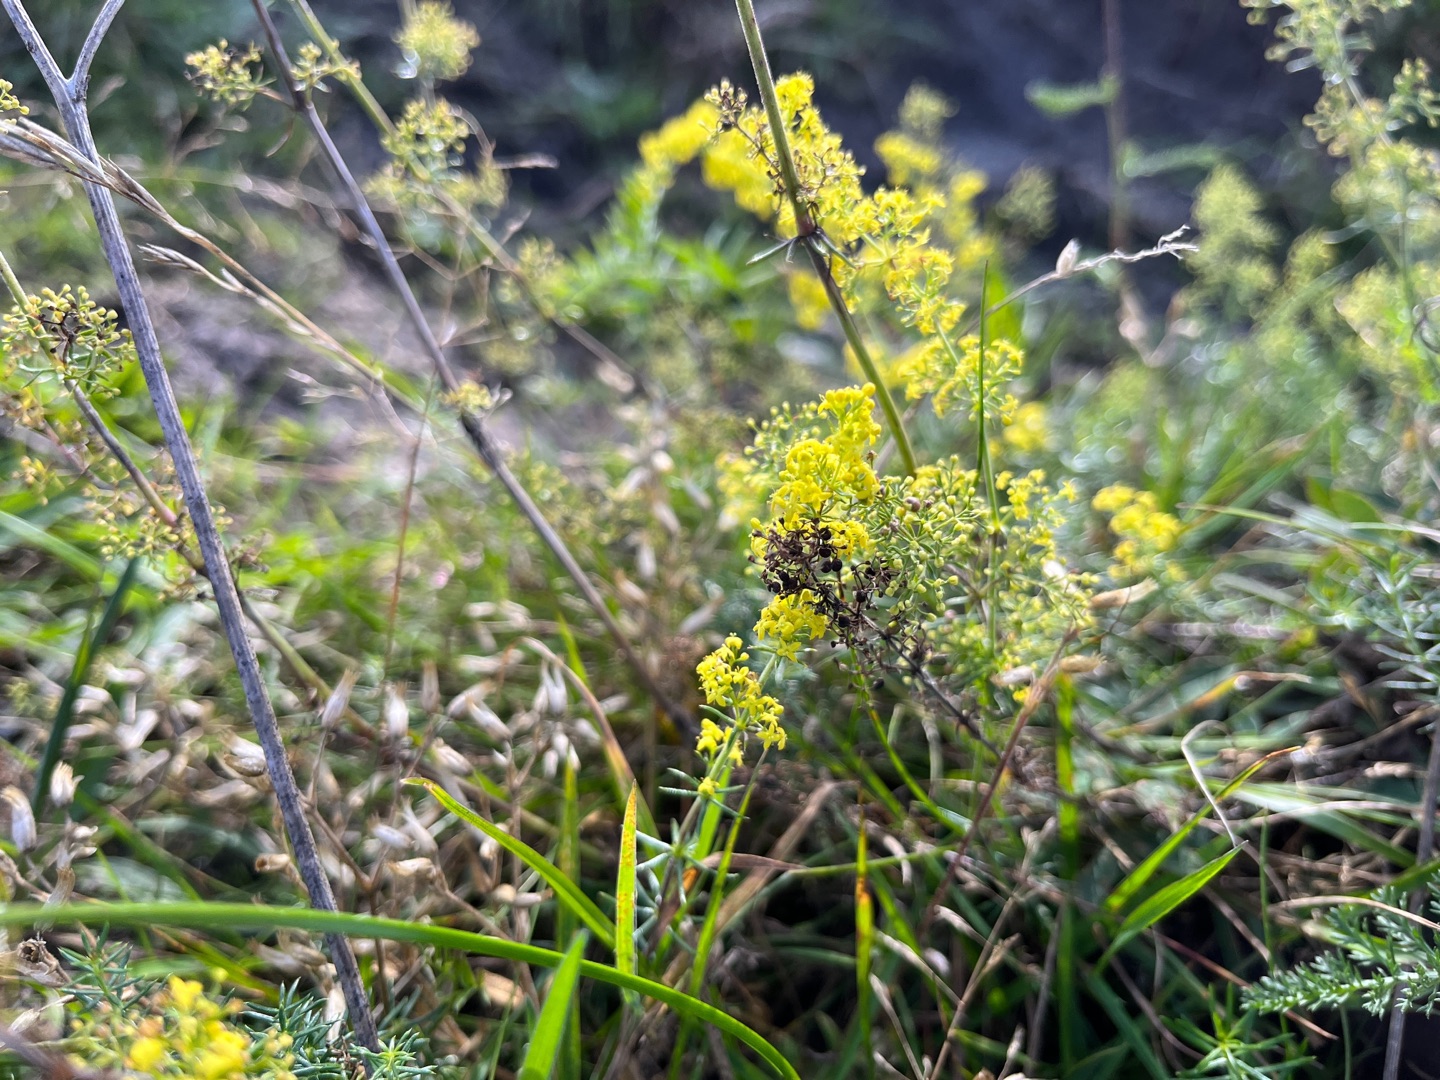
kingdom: Plantae
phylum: Tracheophyta
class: Magnoliopsida
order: Gentianales
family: Rubiaceae
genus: Galium
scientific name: Galium verum
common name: Gul snerre
